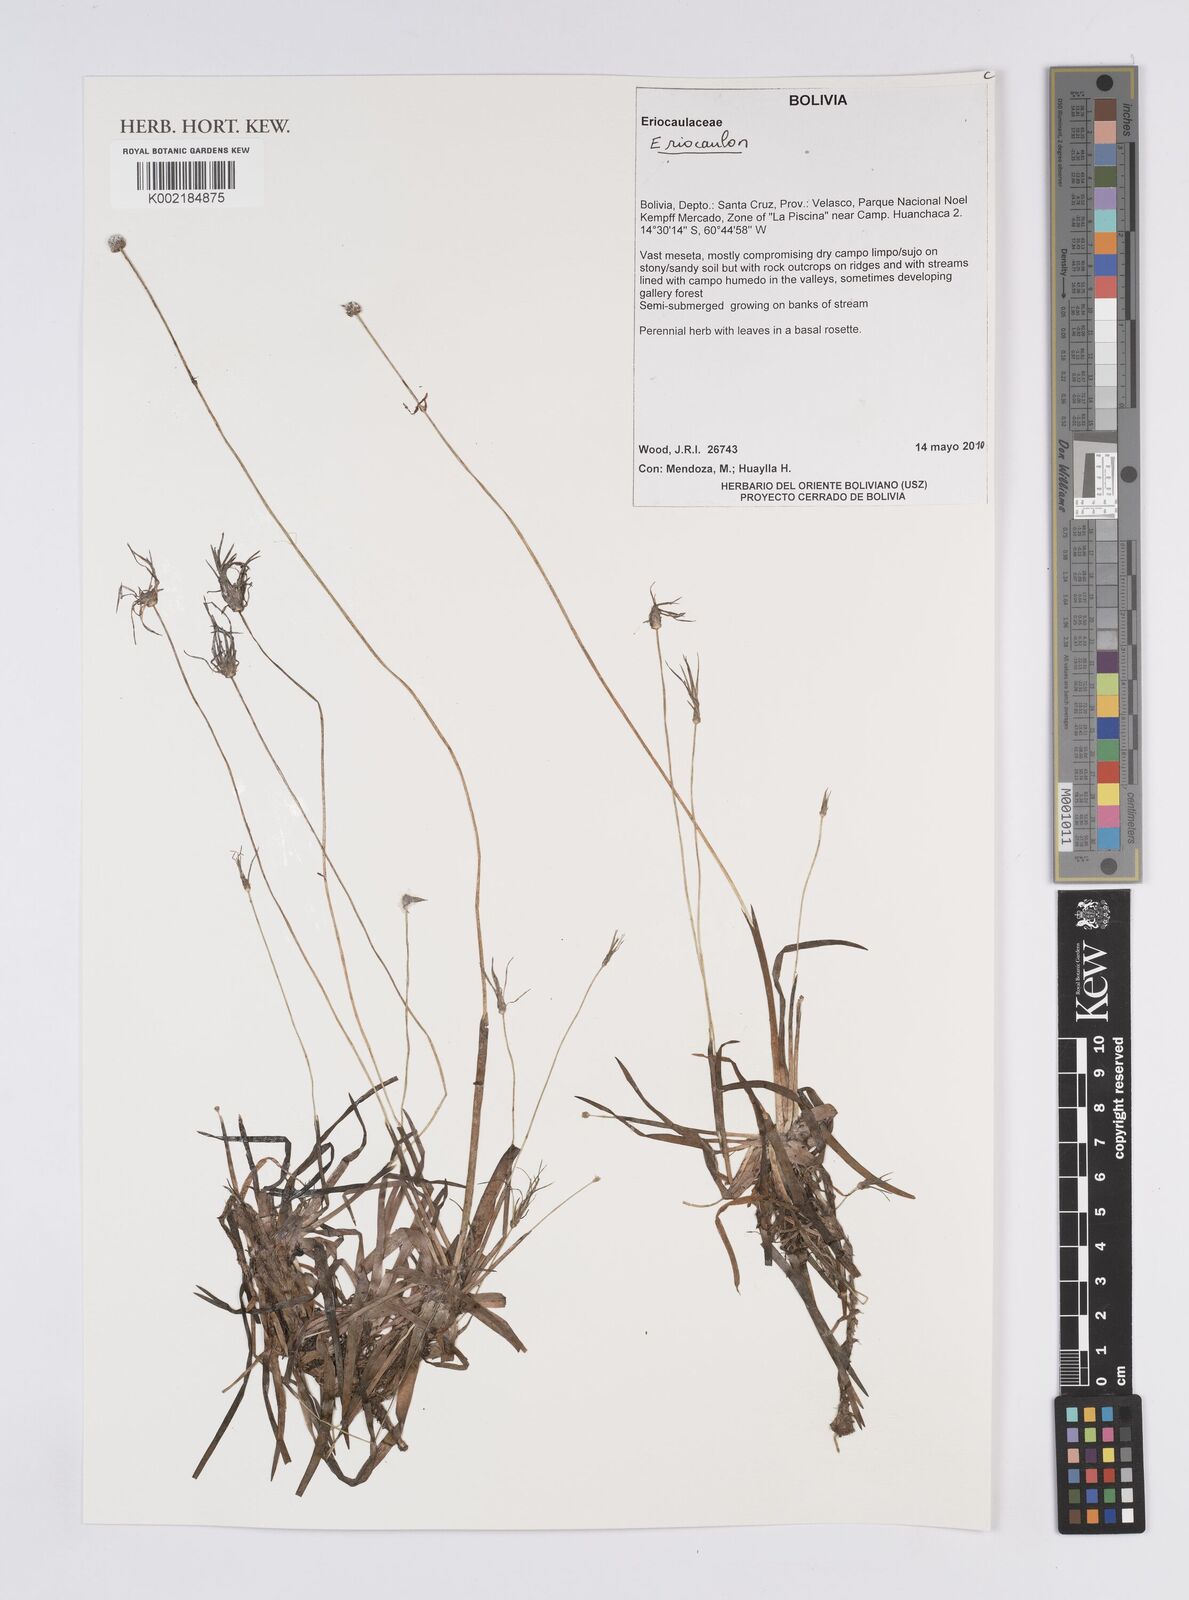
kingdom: Plantae
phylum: Tracheophyta
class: Liliopsida
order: Poales
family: Eriocaulaceae
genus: Eriocaulon
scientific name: Eriocaulon
